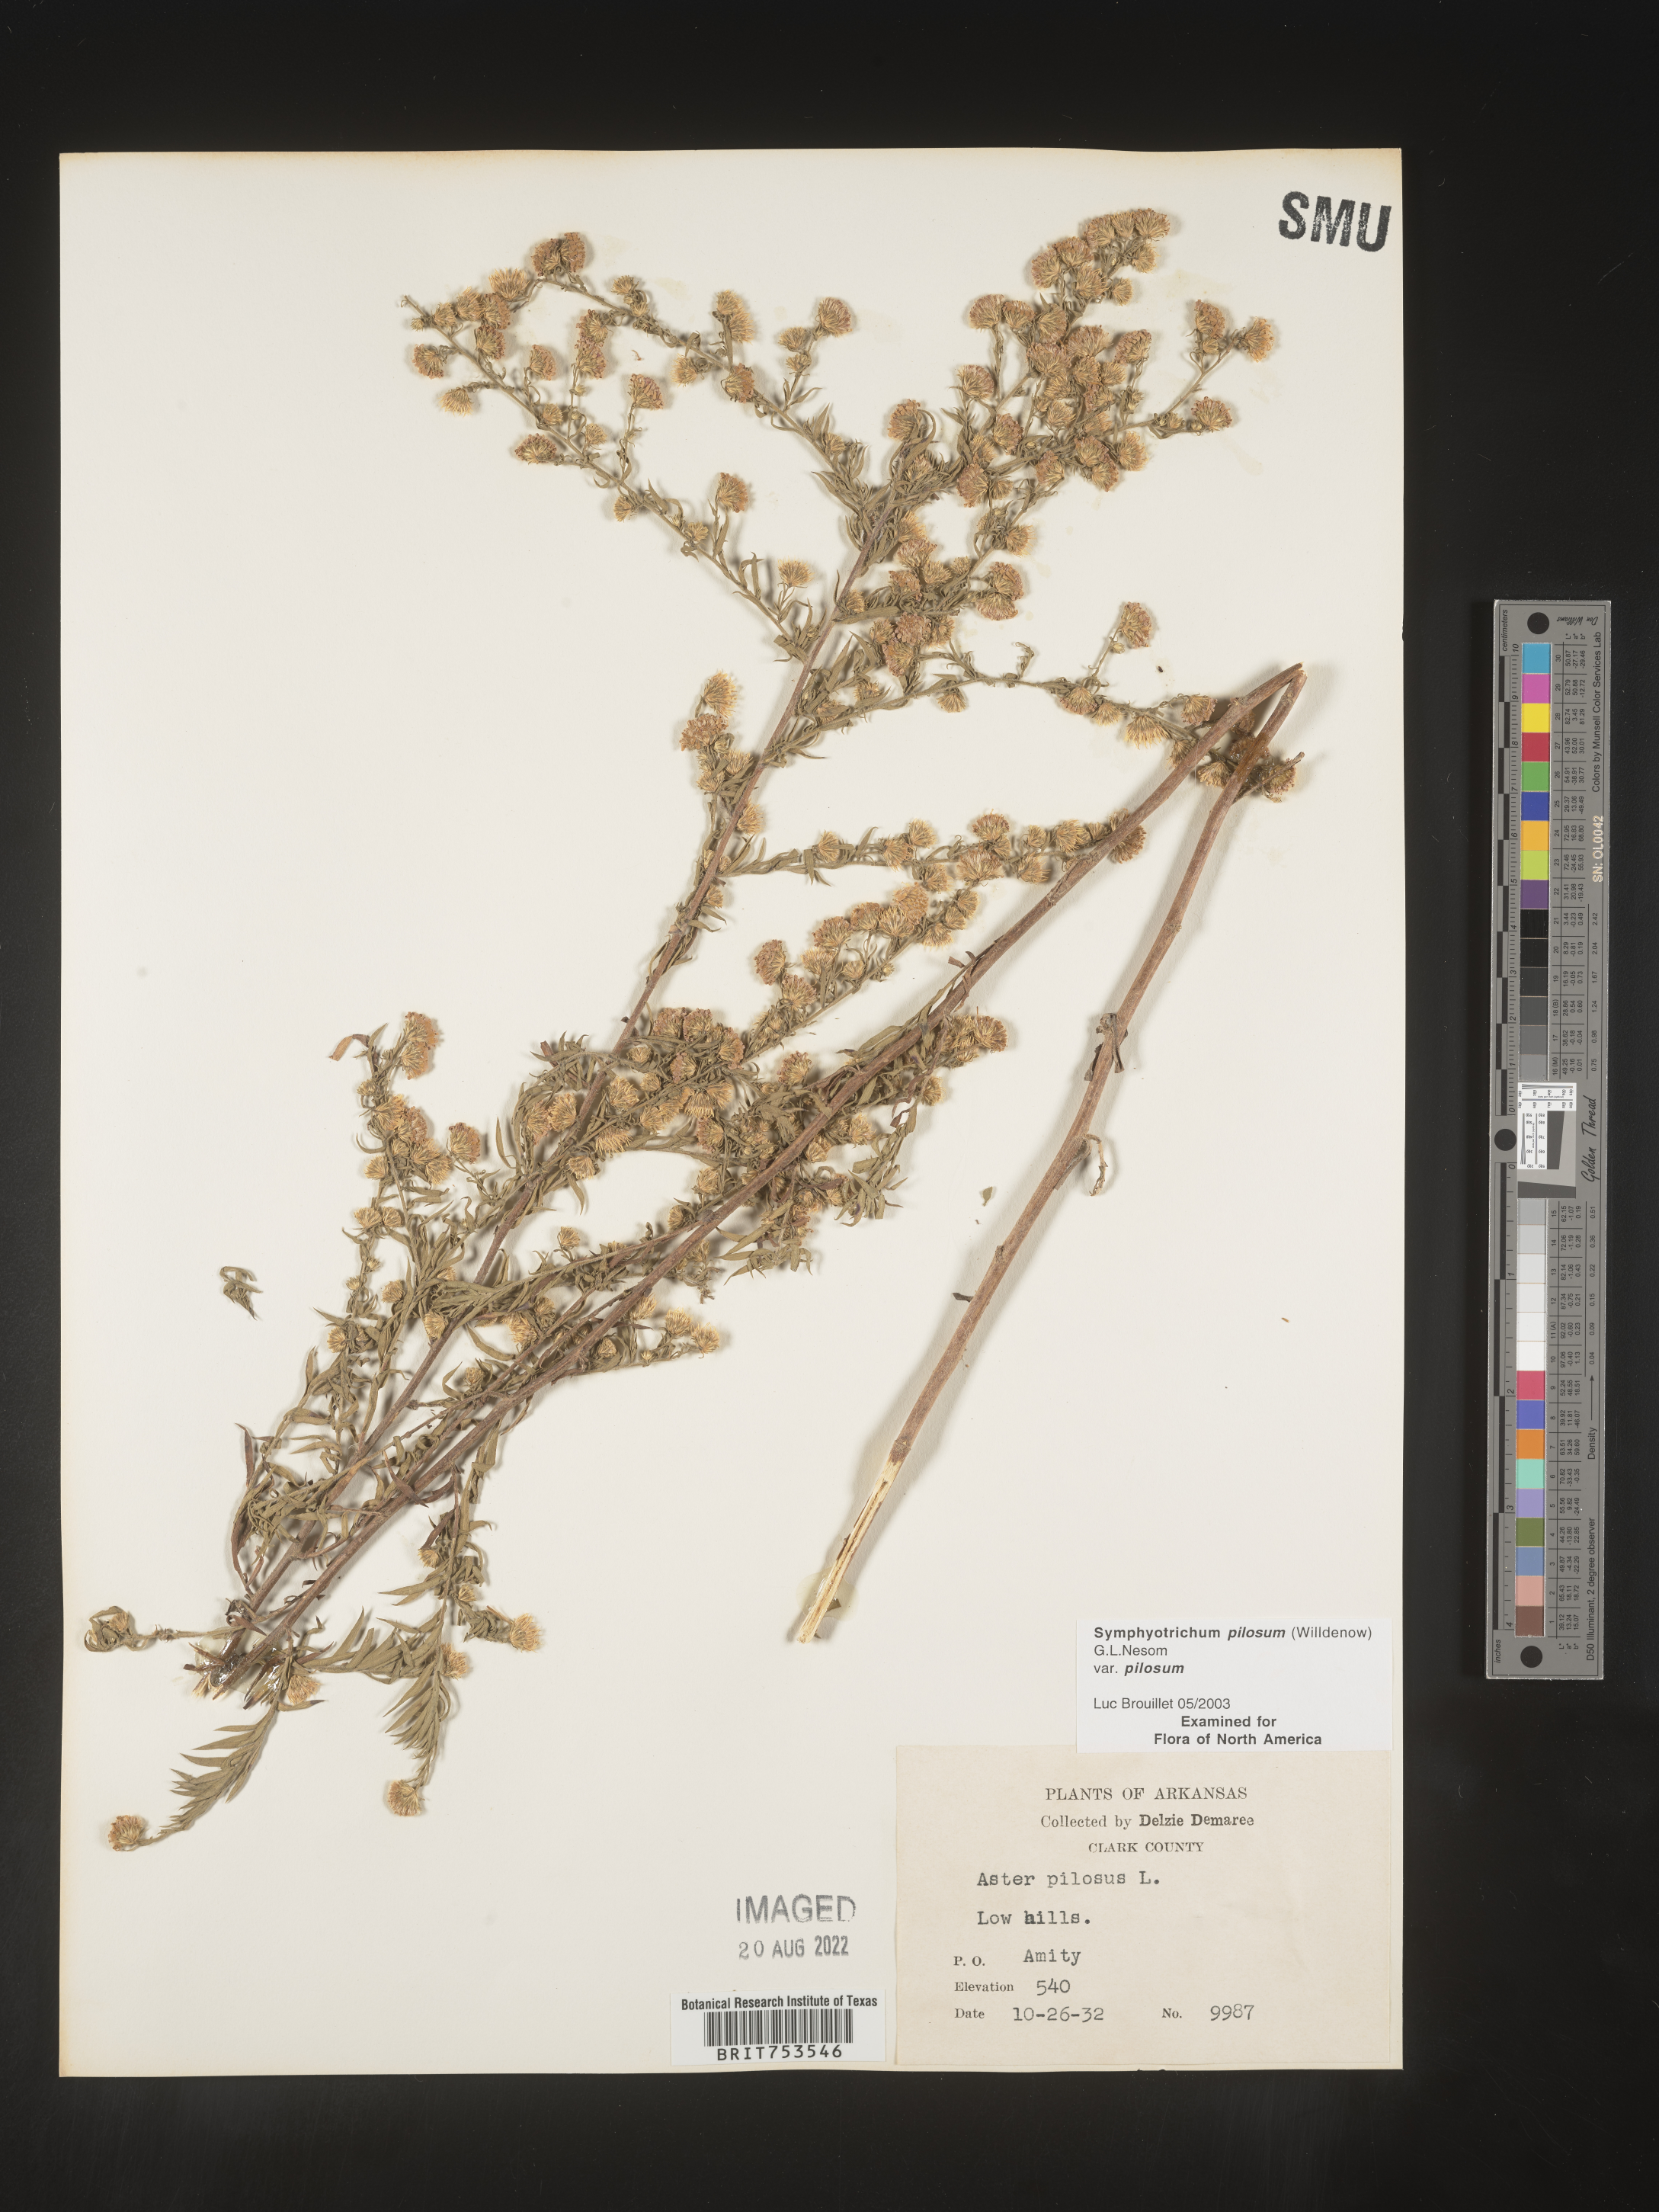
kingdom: Plantae
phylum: Tracheophyta
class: Magnoliopsida
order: Asterales
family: Asteraceae
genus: Symphyotrichum
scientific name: Symphyotrichum pilosum
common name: Awl aster
